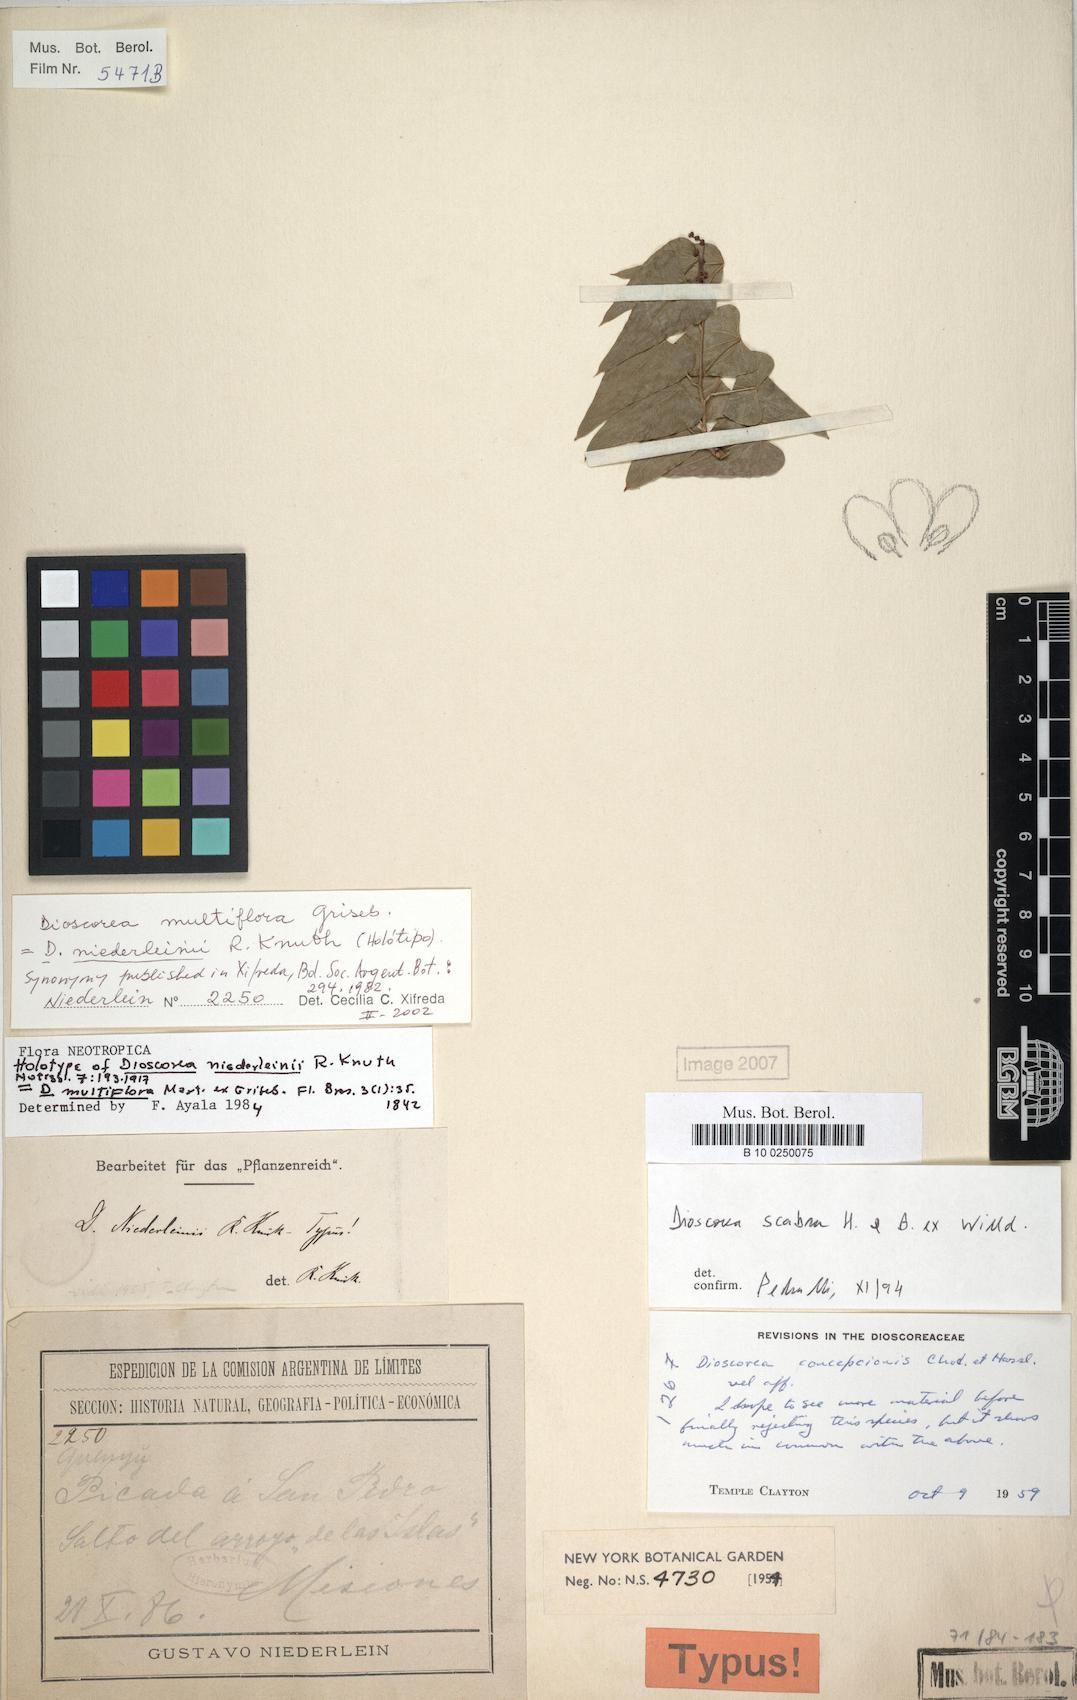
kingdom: Plantae
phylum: Tracheophyta
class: Liliopsida
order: Dioscoreales
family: Dioscoreaceae
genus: Dioscorea
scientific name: Dioscorea multiflora
